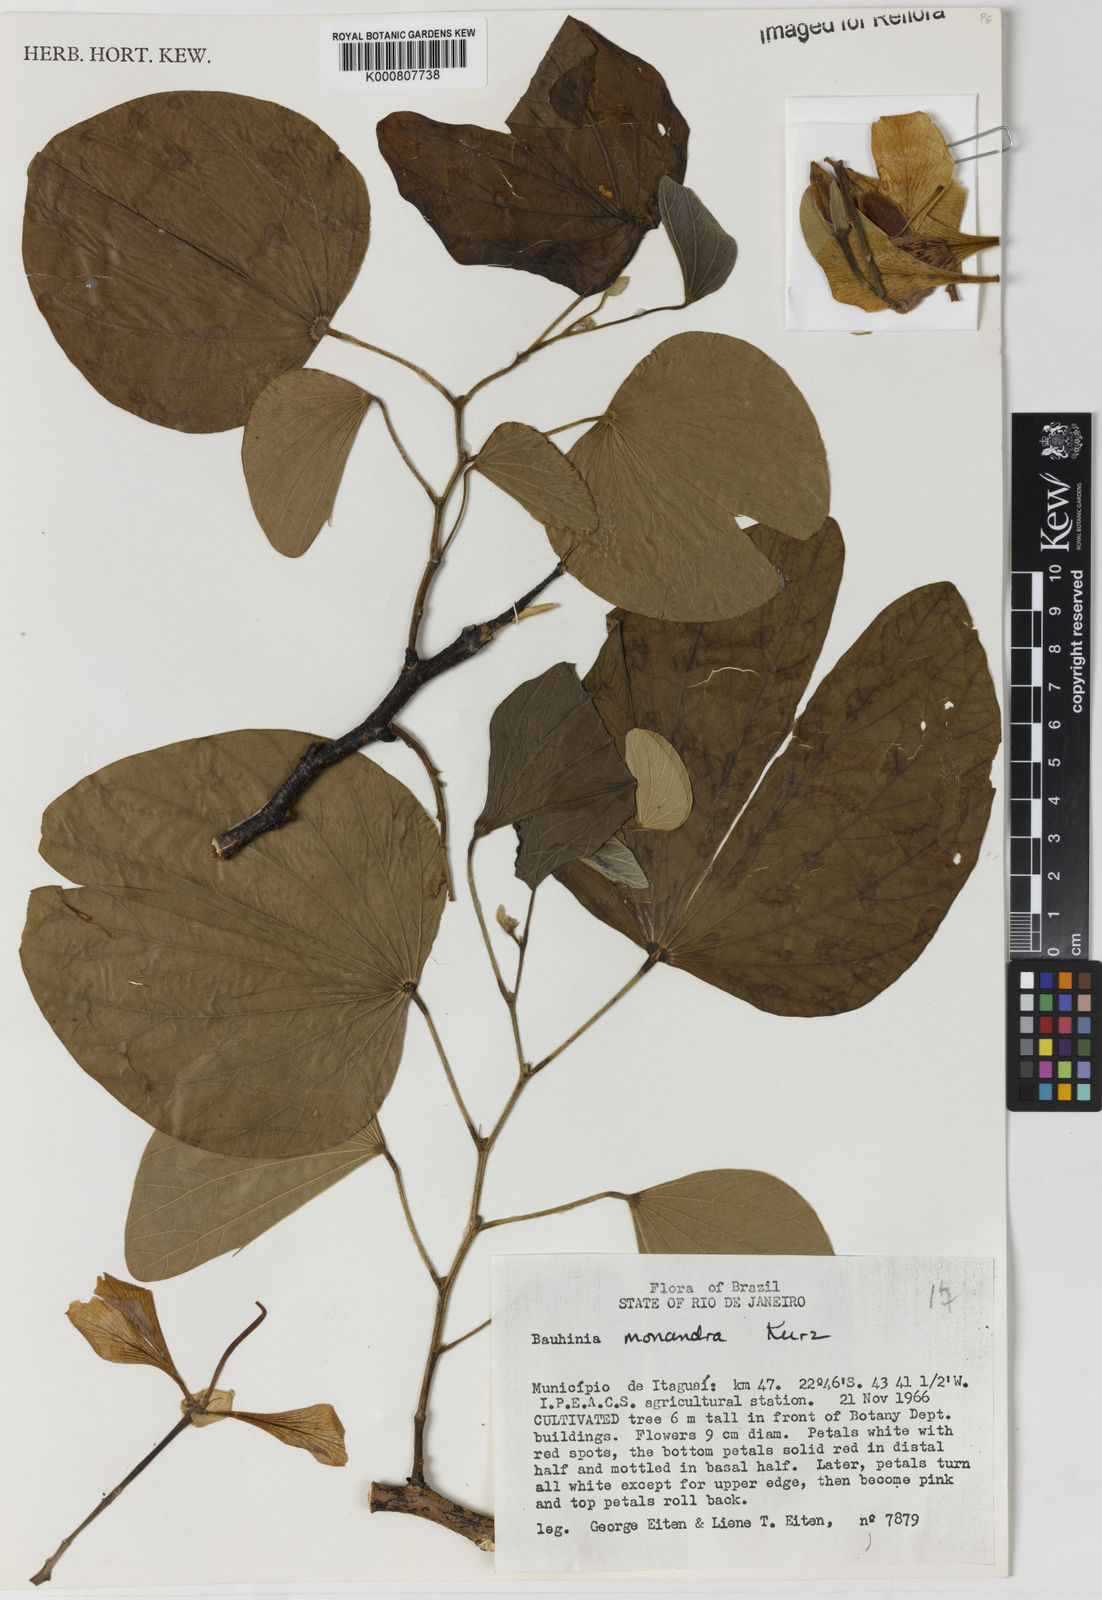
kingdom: Plantae
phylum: Tracheophyta
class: Magnoliopsida
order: Fabales
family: Fabaceae
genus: Bauhinia
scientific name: Bauhinia monandra
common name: Napoleon's plume
